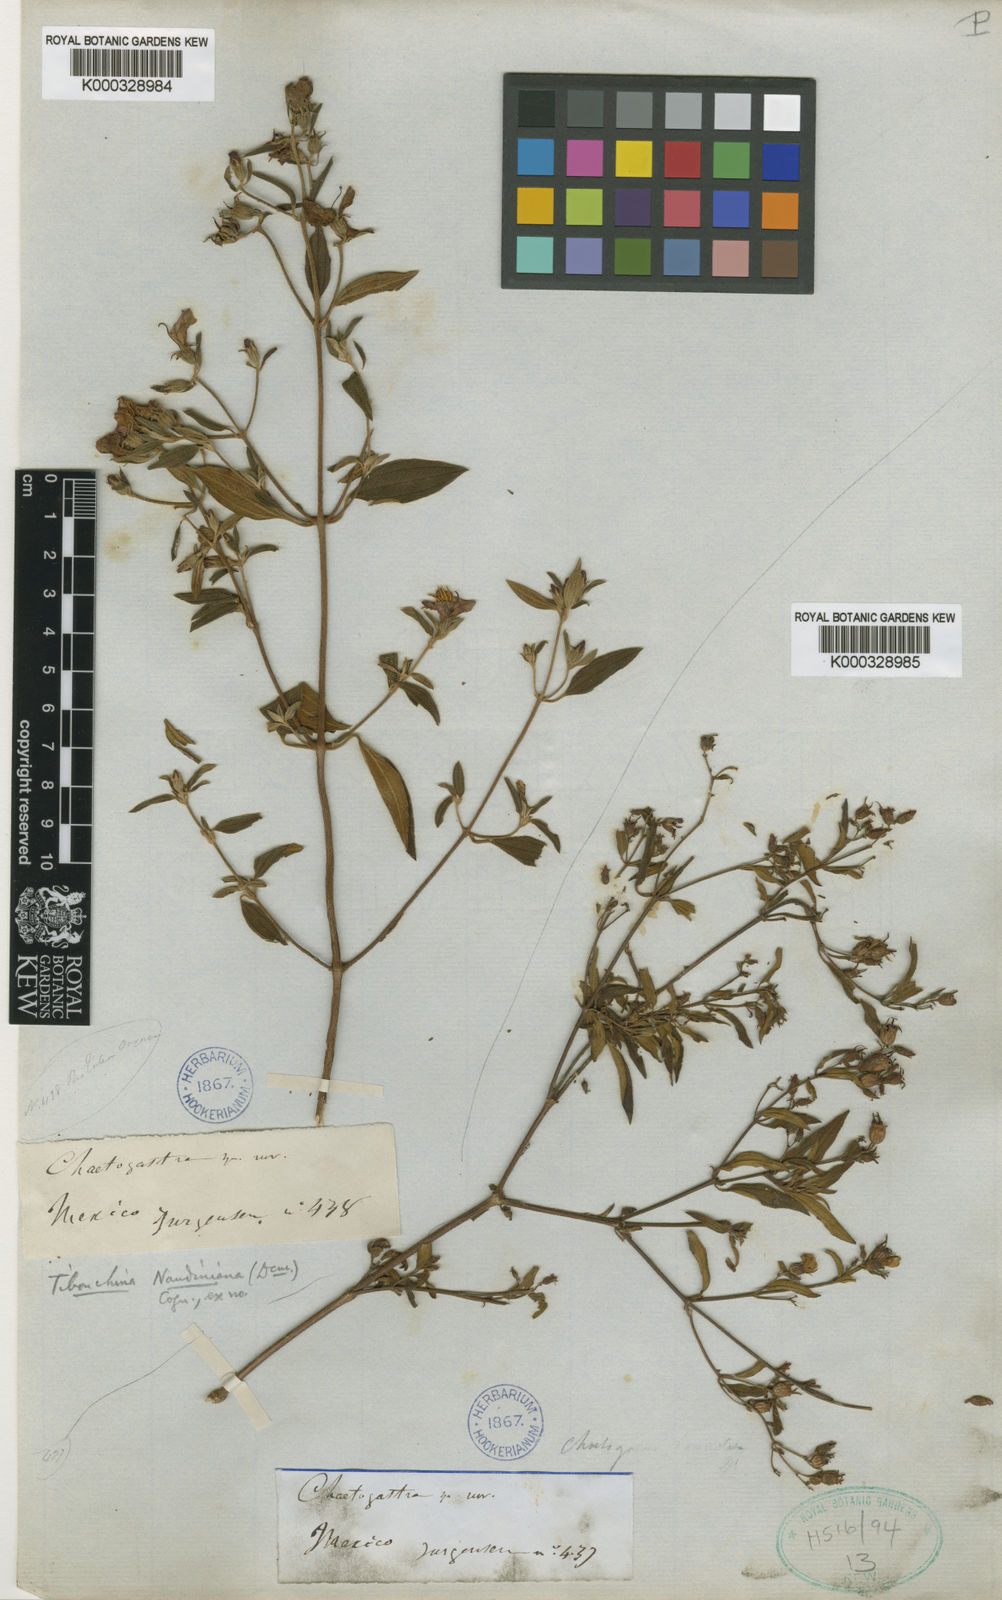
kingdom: Plantae
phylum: Tracheophyta
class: Magnoliopsida
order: Myrtales
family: Melastomataceae
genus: Chaetogastra
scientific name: Chaetogastra naudiniana
